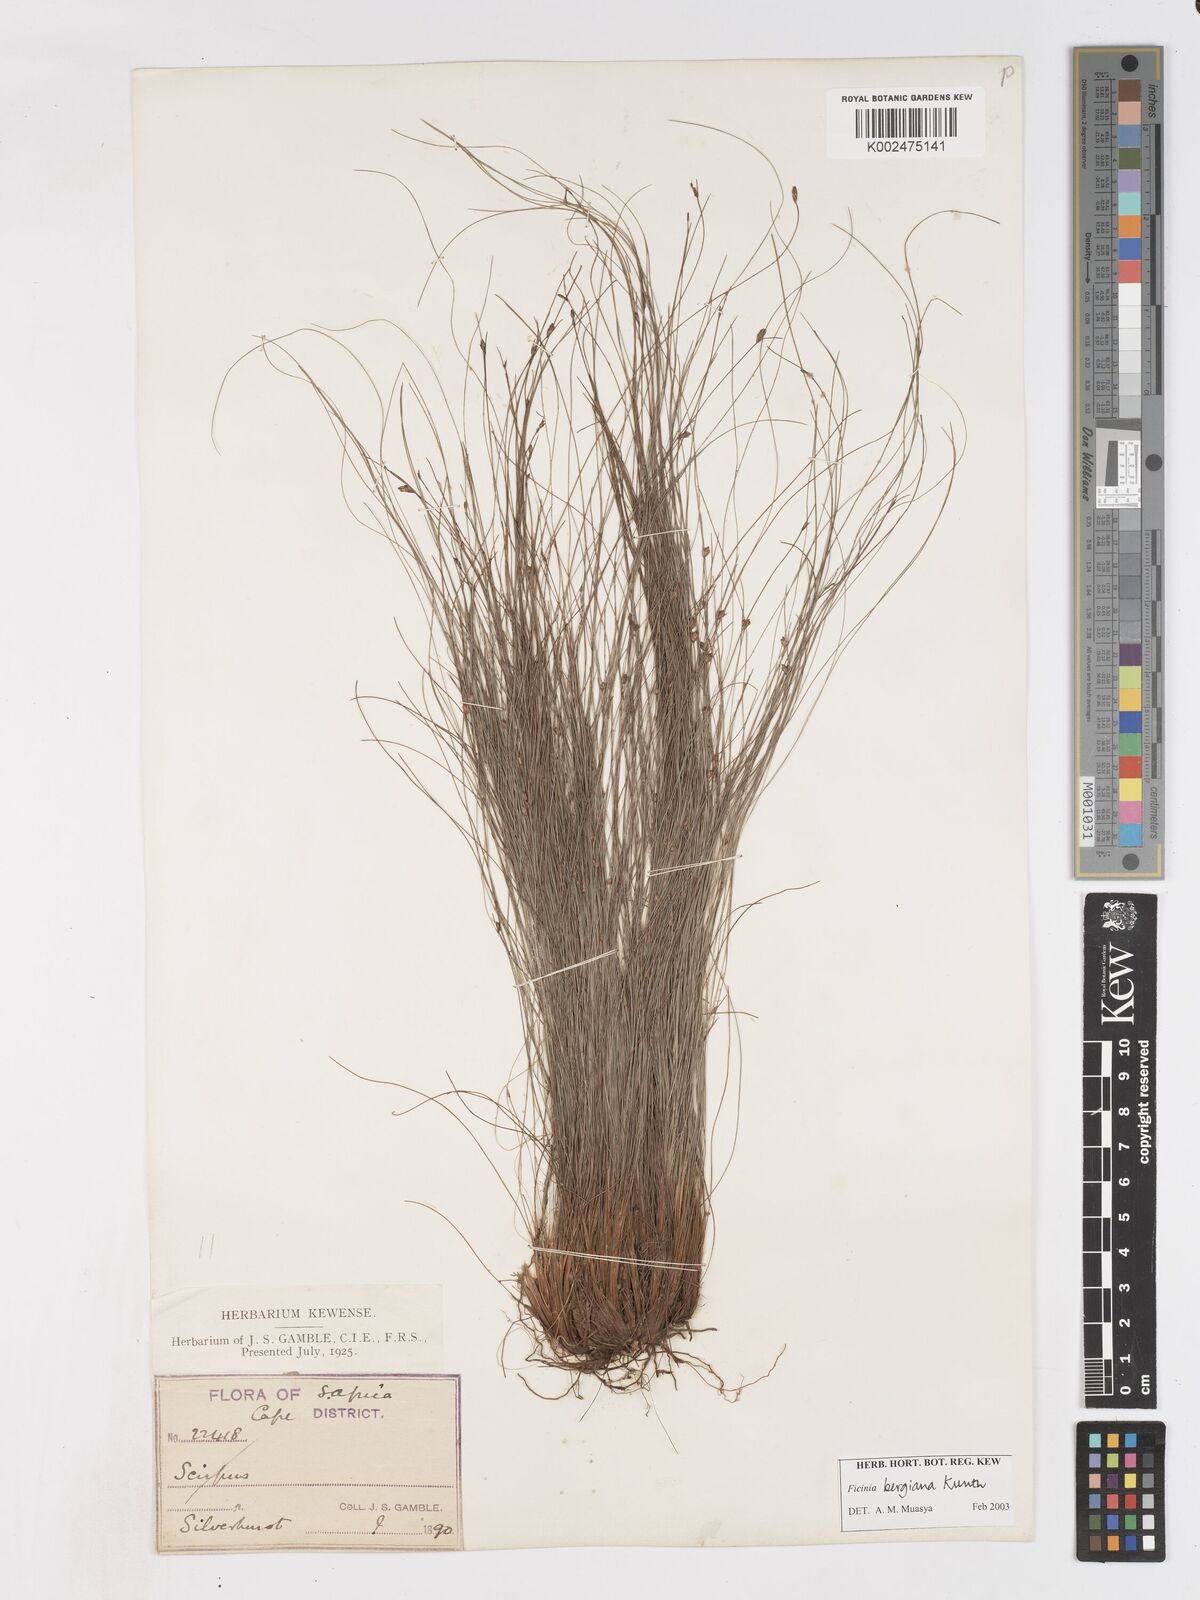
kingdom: Plantae
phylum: Tracheophyta
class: Liliopsida
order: Poales
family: Cyperaceae
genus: Ficinia
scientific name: Ficinia tristachya
